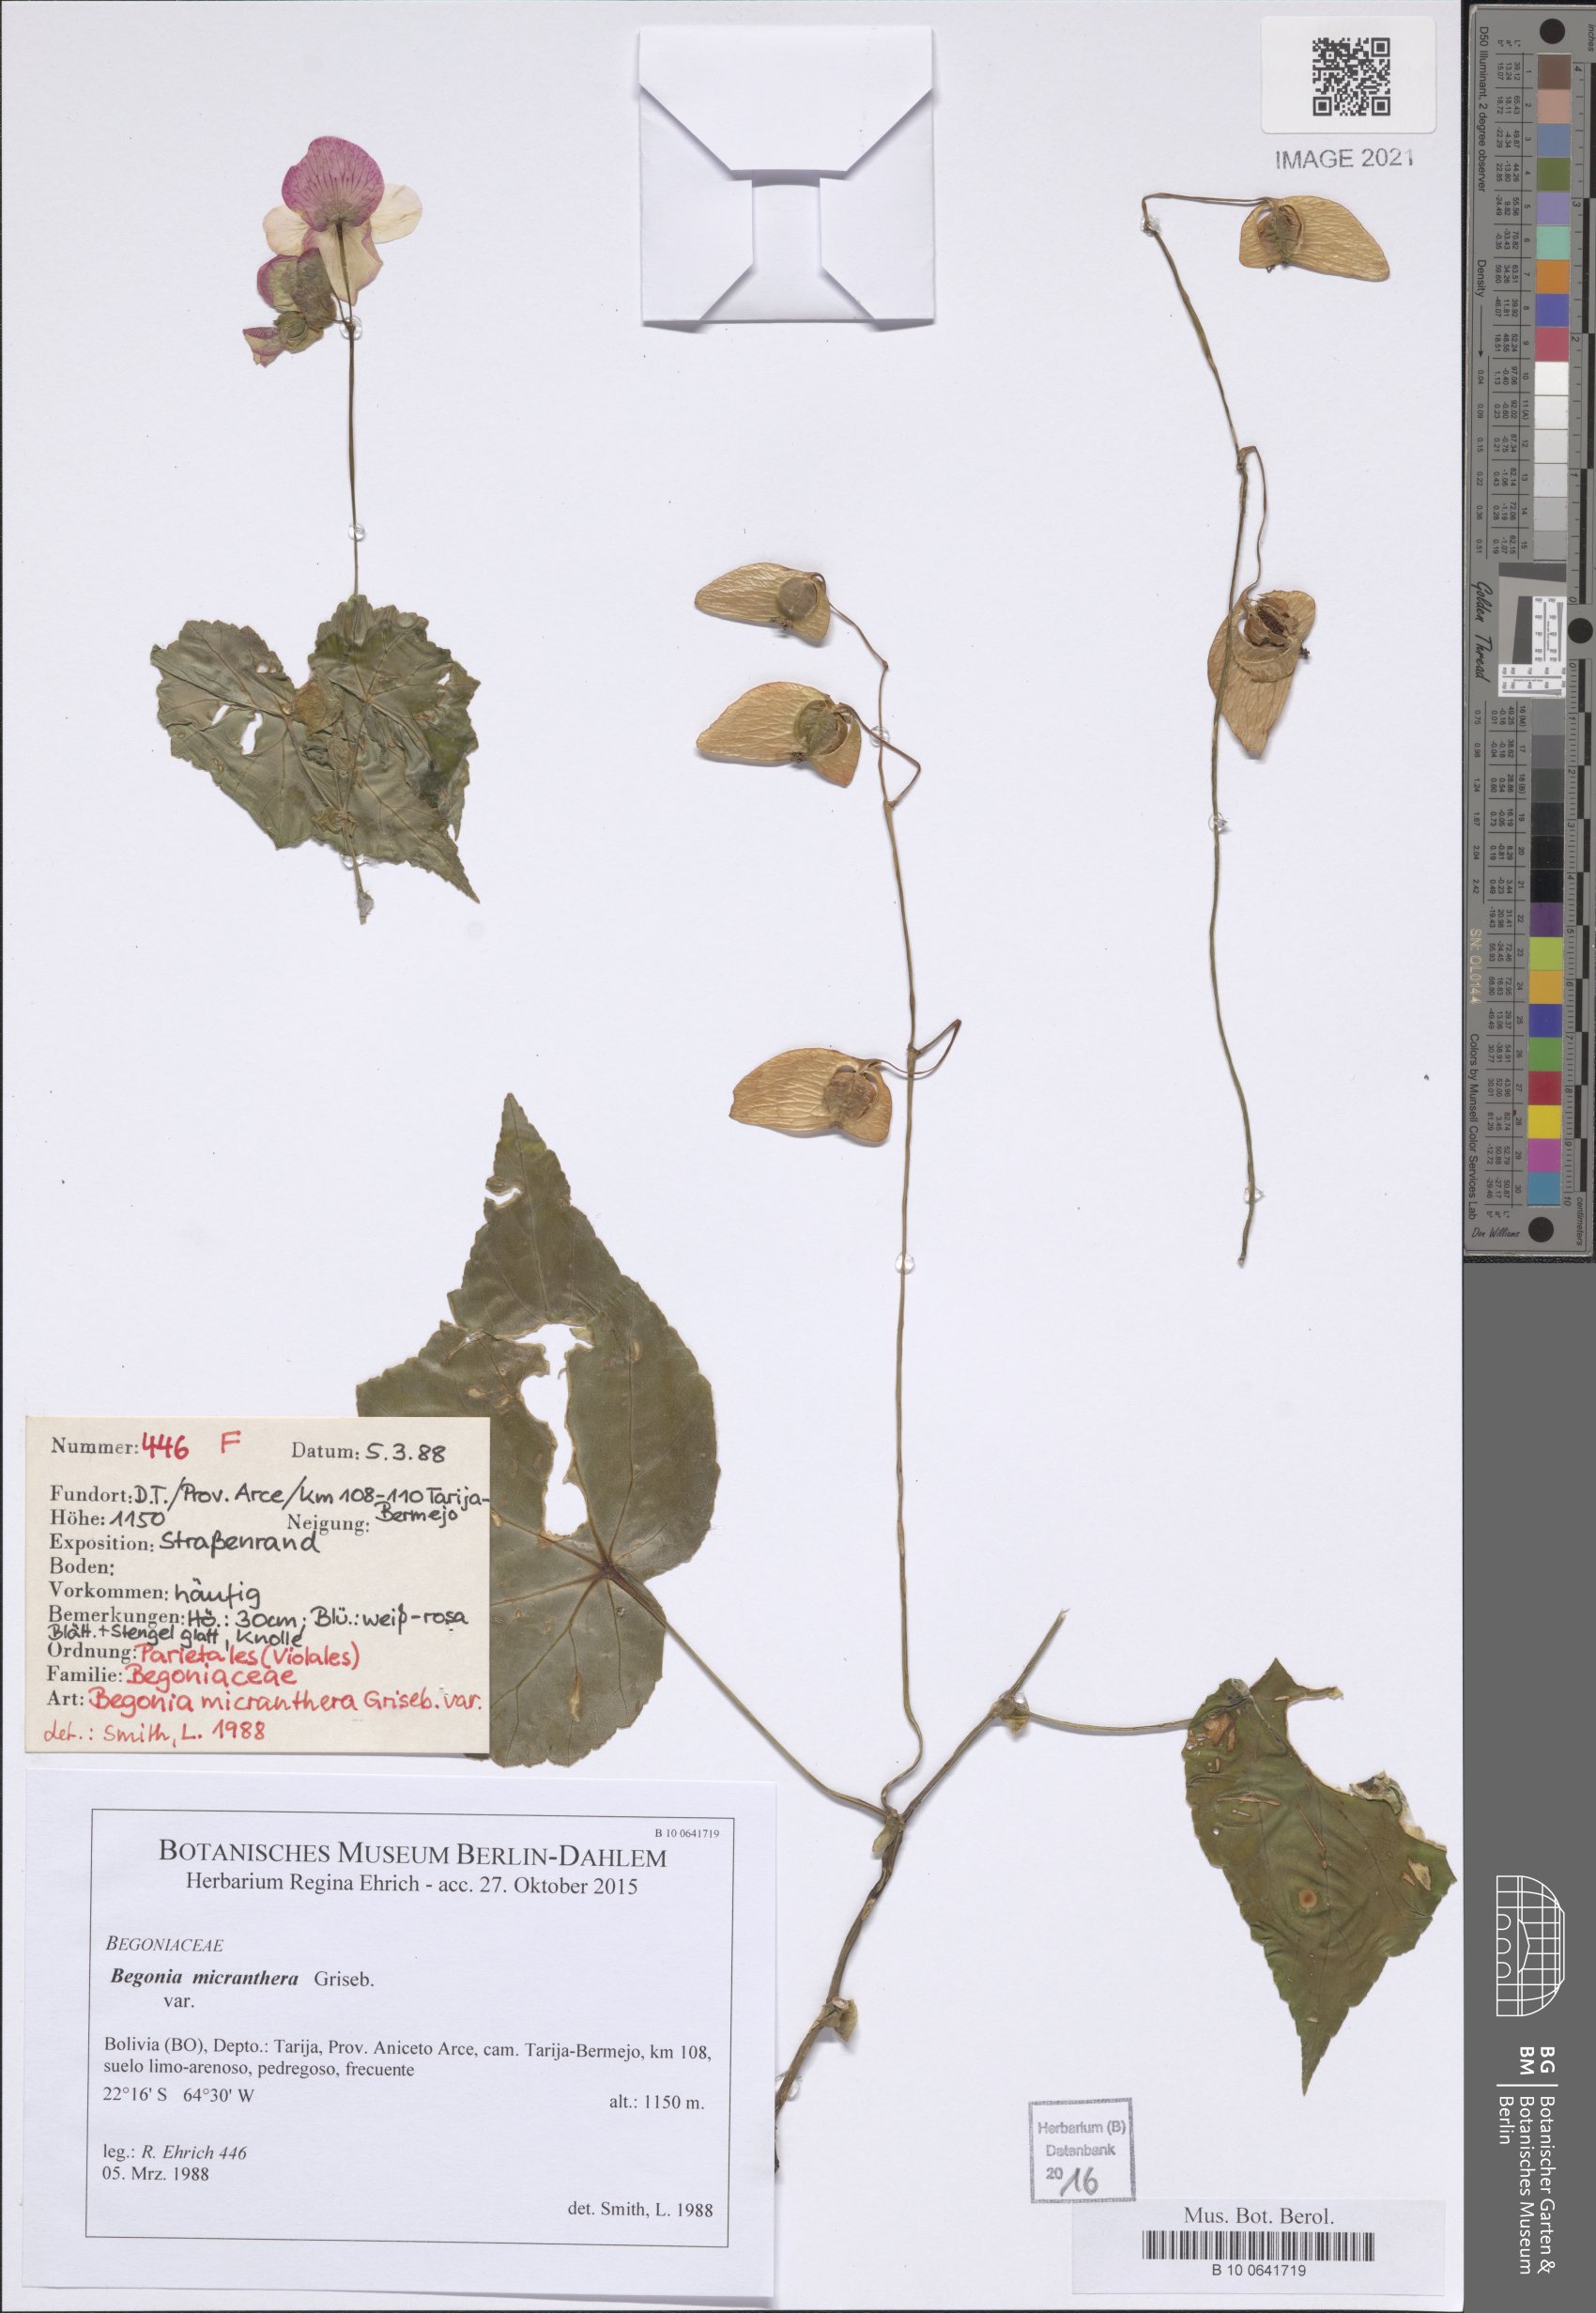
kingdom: Plantae
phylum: Tracheophyta
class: Magnoliopsida
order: Cucurbitales
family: Begoniaceae
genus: Begonia
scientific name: Begonia micranthera
